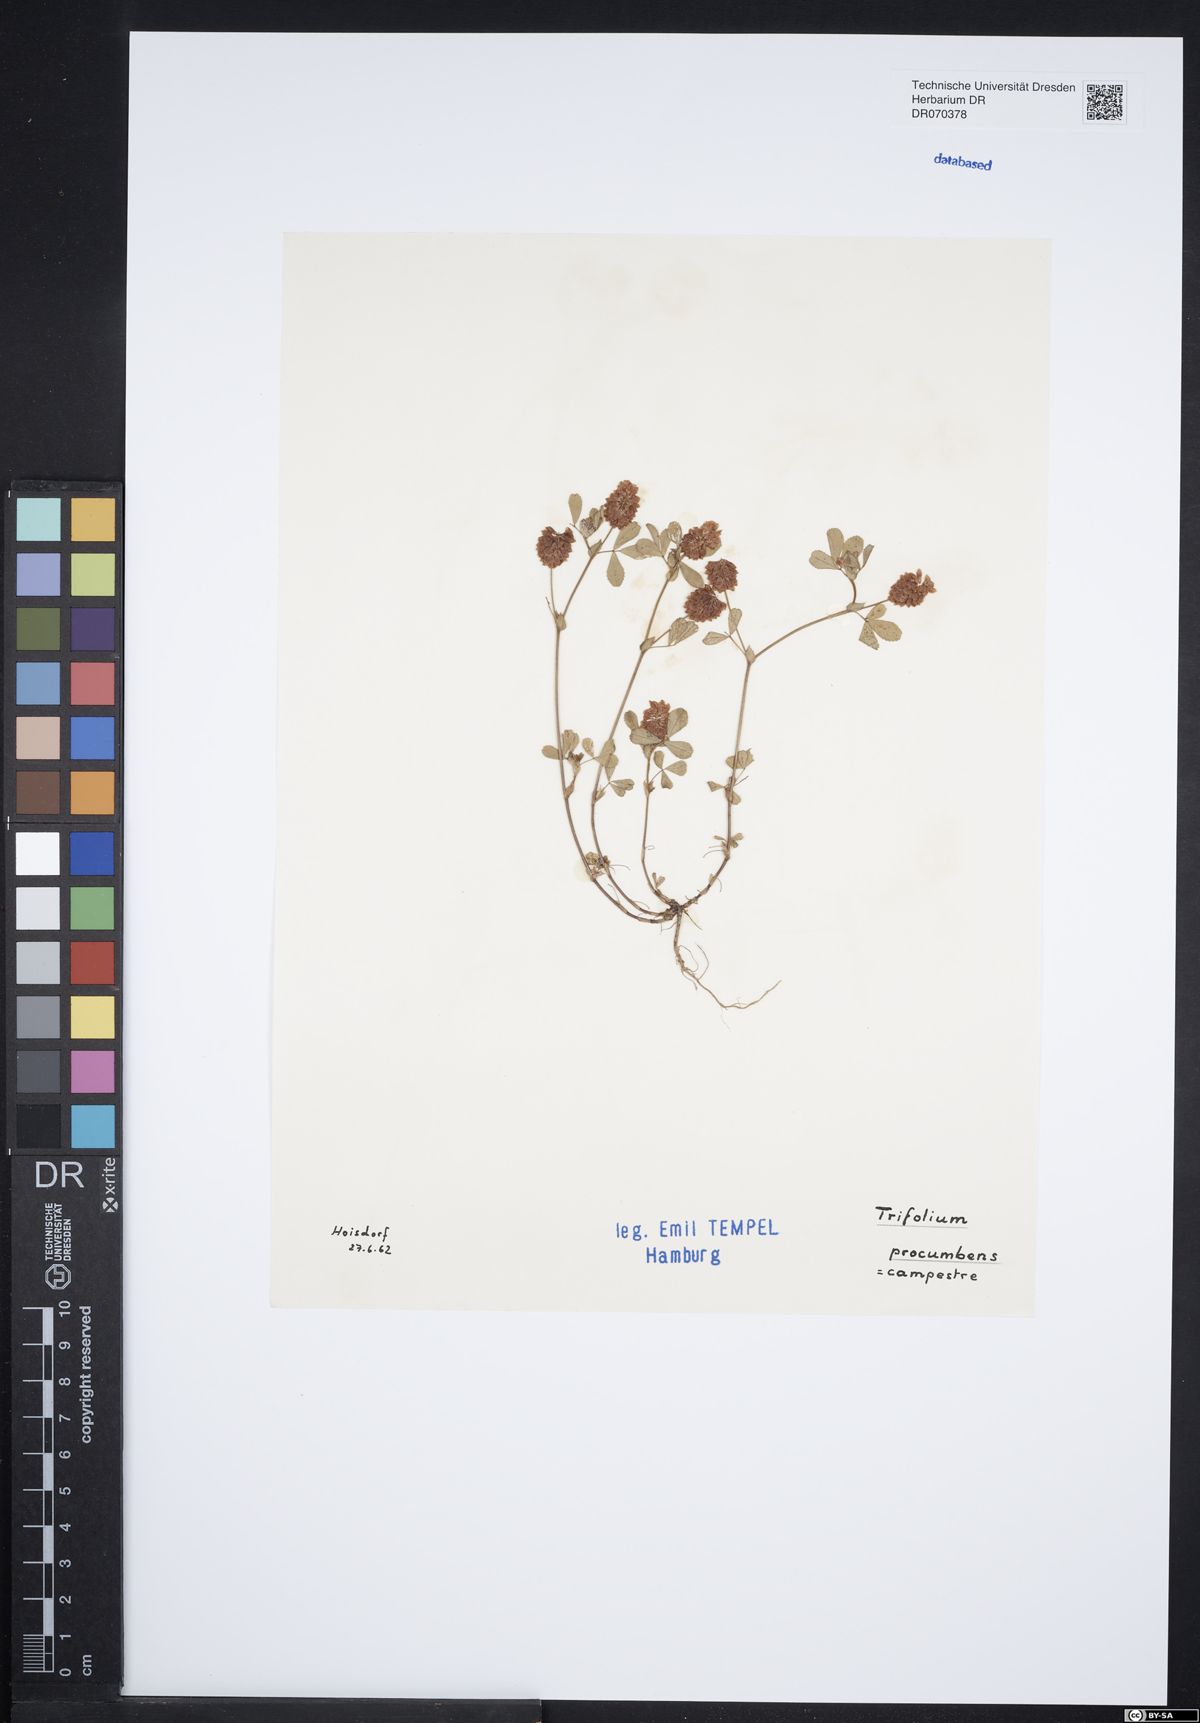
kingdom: Plantae
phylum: Tracheophyta
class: Magnoliopsida
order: Fabales
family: Fabaceae
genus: Trifolium
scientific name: Trifolium campestre
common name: Field clover
